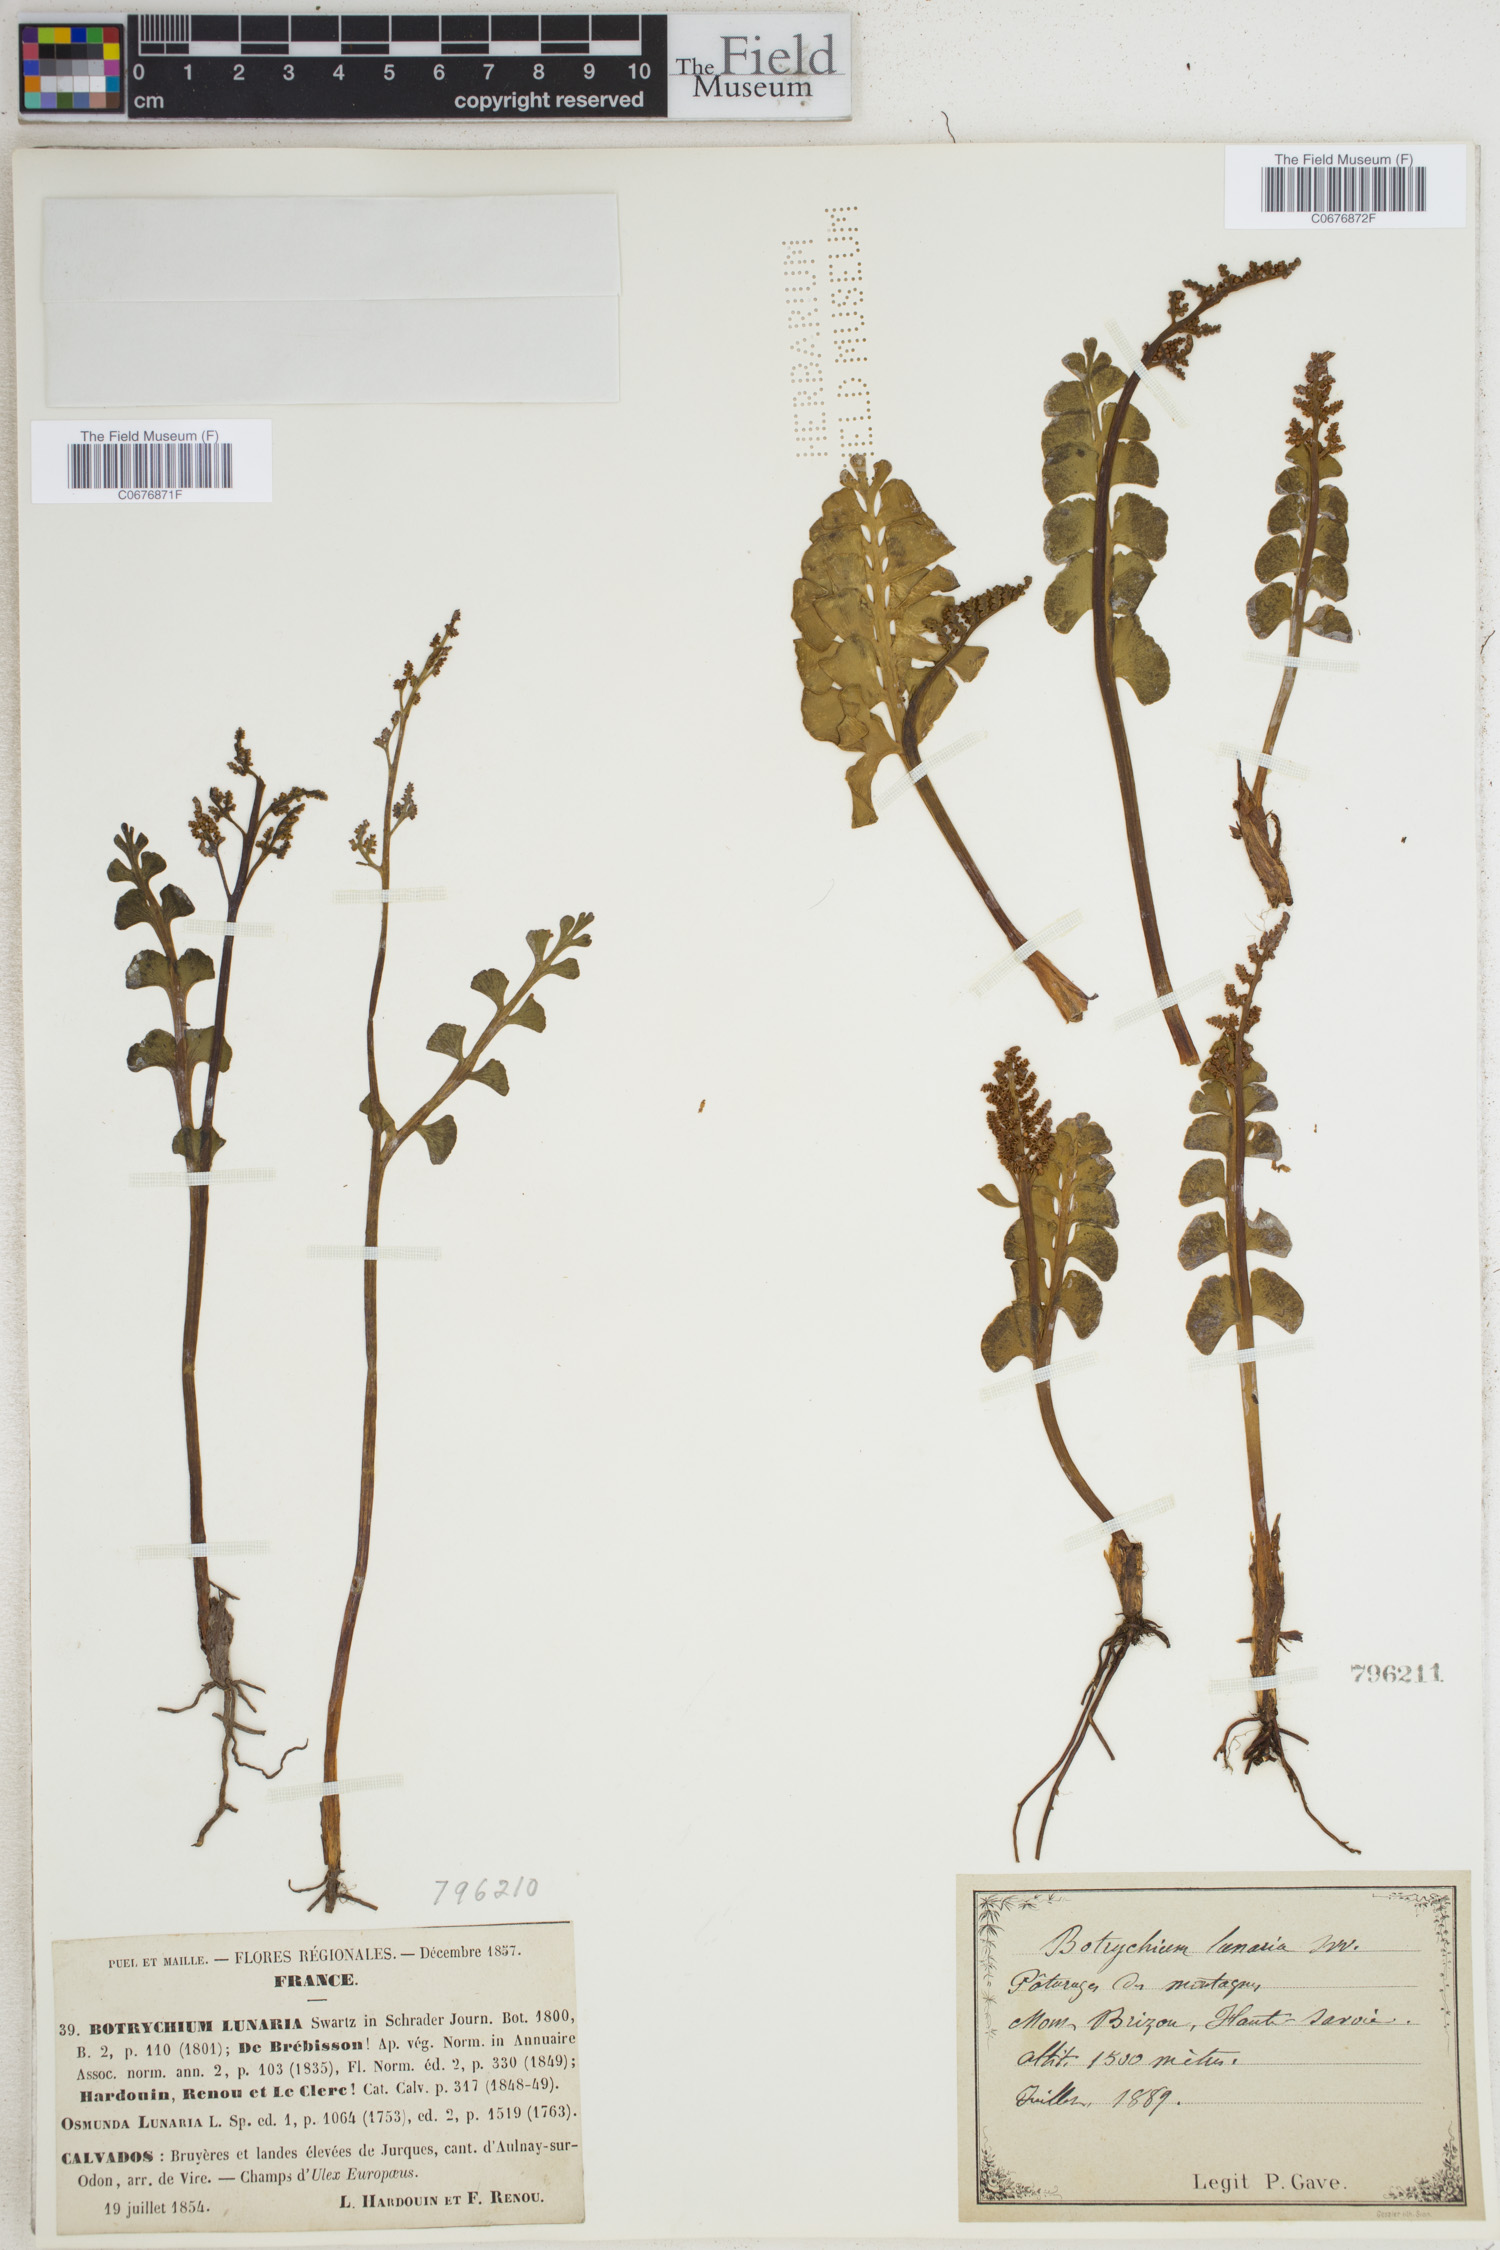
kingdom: Plantae
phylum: Tracheophyta
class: Polypodiopsida
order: Ophioglossales
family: Ophioglossaceae
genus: Botrychium
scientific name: Botrychium lunaria
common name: Moonwort
